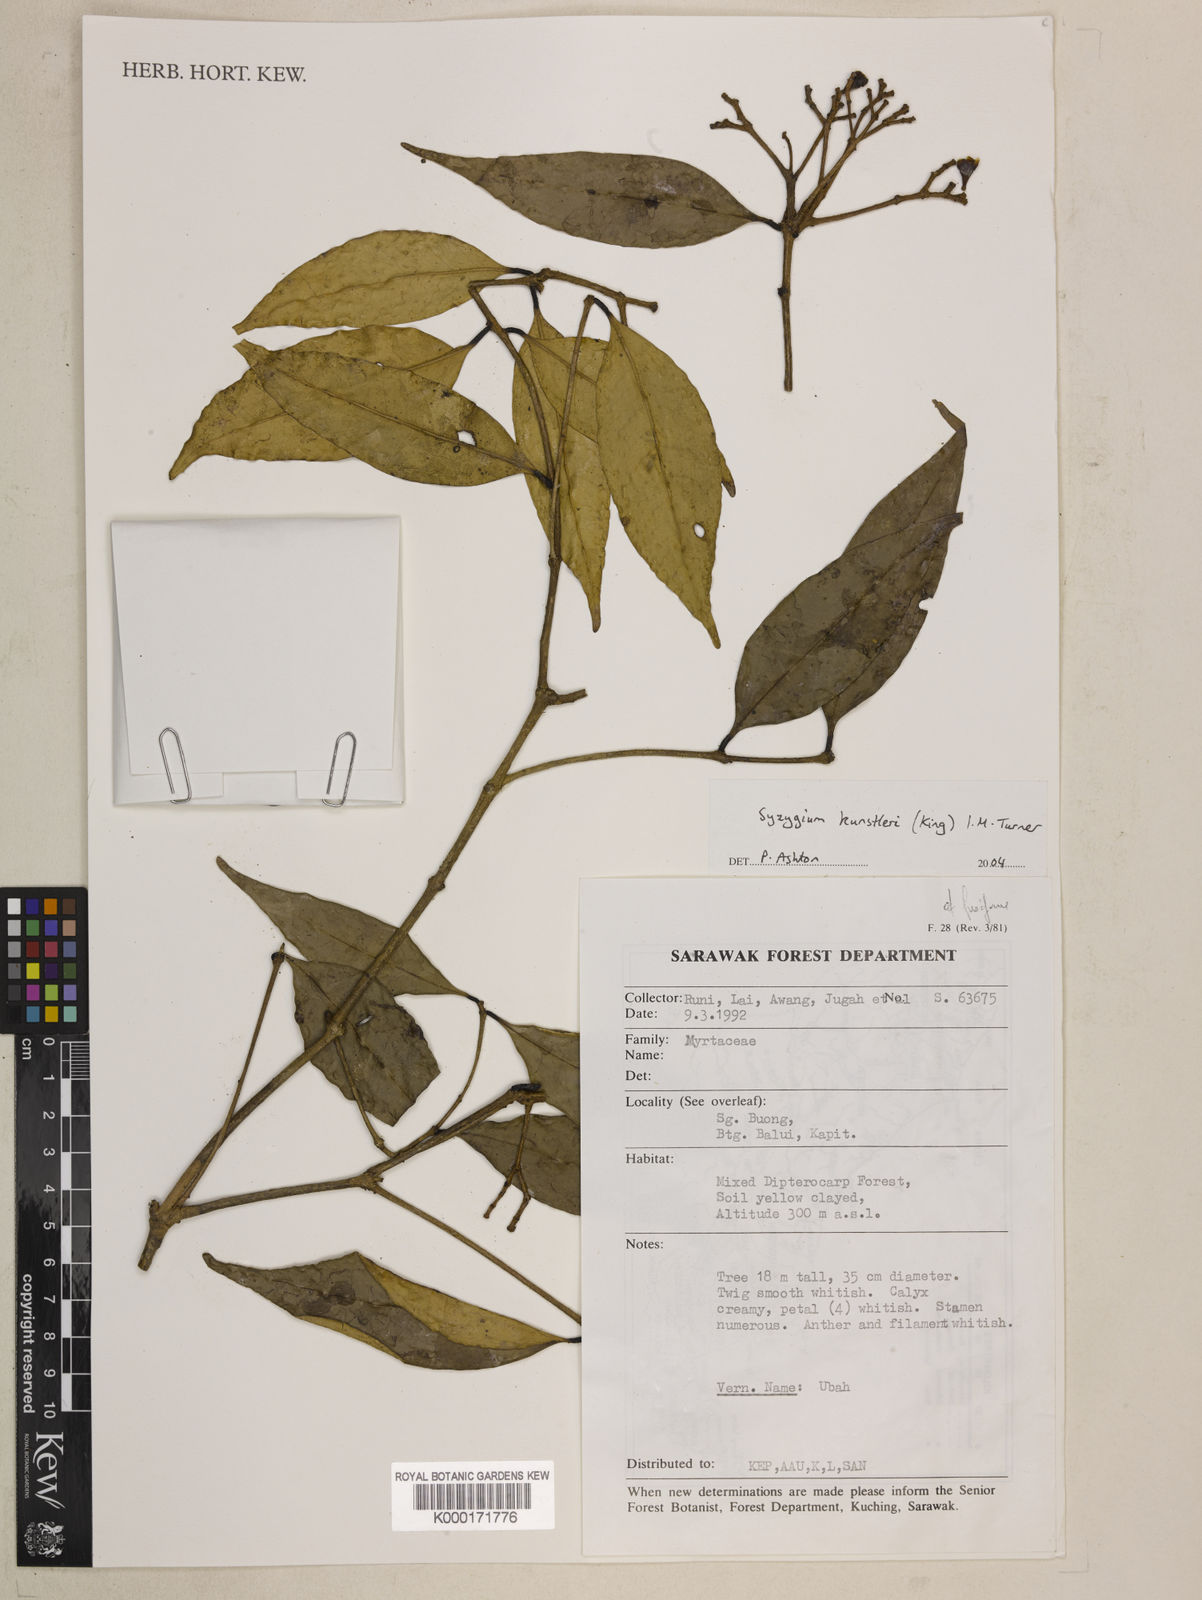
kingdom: Plantae
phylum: Tracheophyta
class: Magnoliopsida
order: Myrtales
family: Myrtaceae
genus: Syzygium
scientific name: Syzygium
